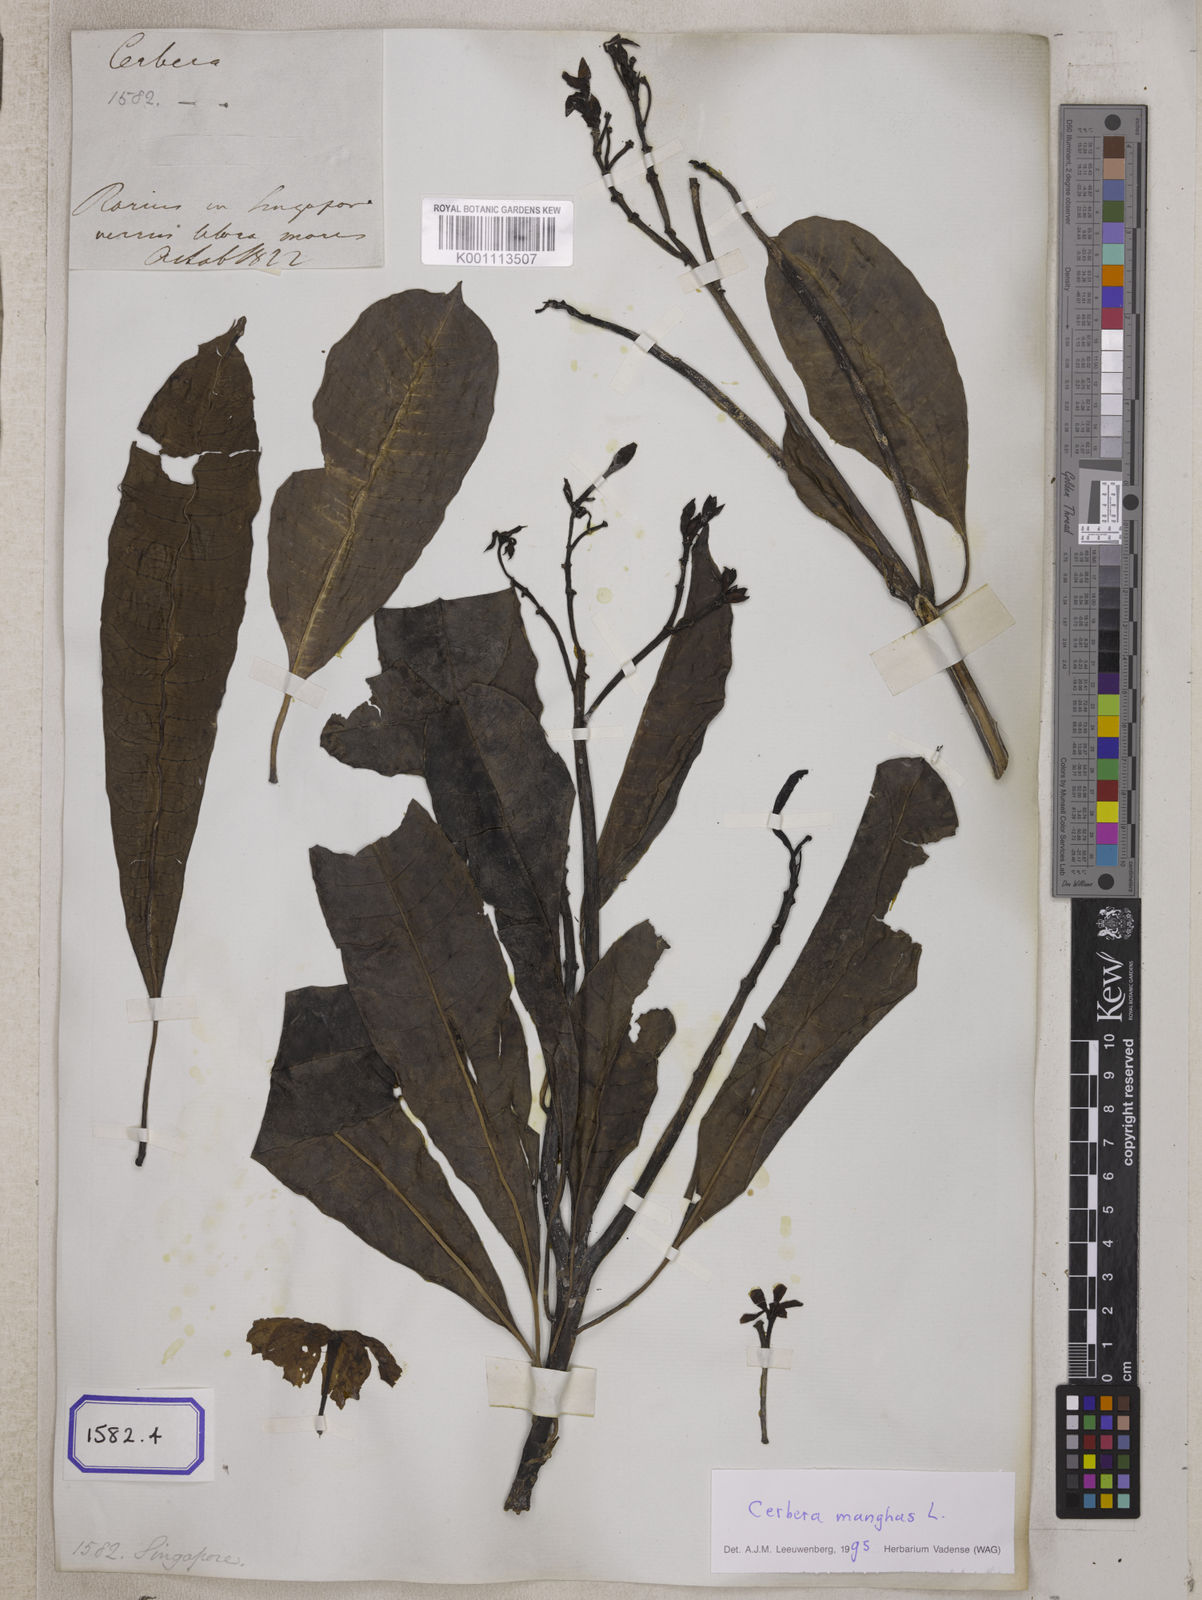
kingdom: Plantae
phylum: Tracheophyta
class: Magnoliopsida
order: Gentianales
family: Apocynaceae
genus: Cerbera
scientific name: Cerbera manghas
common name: Reva
